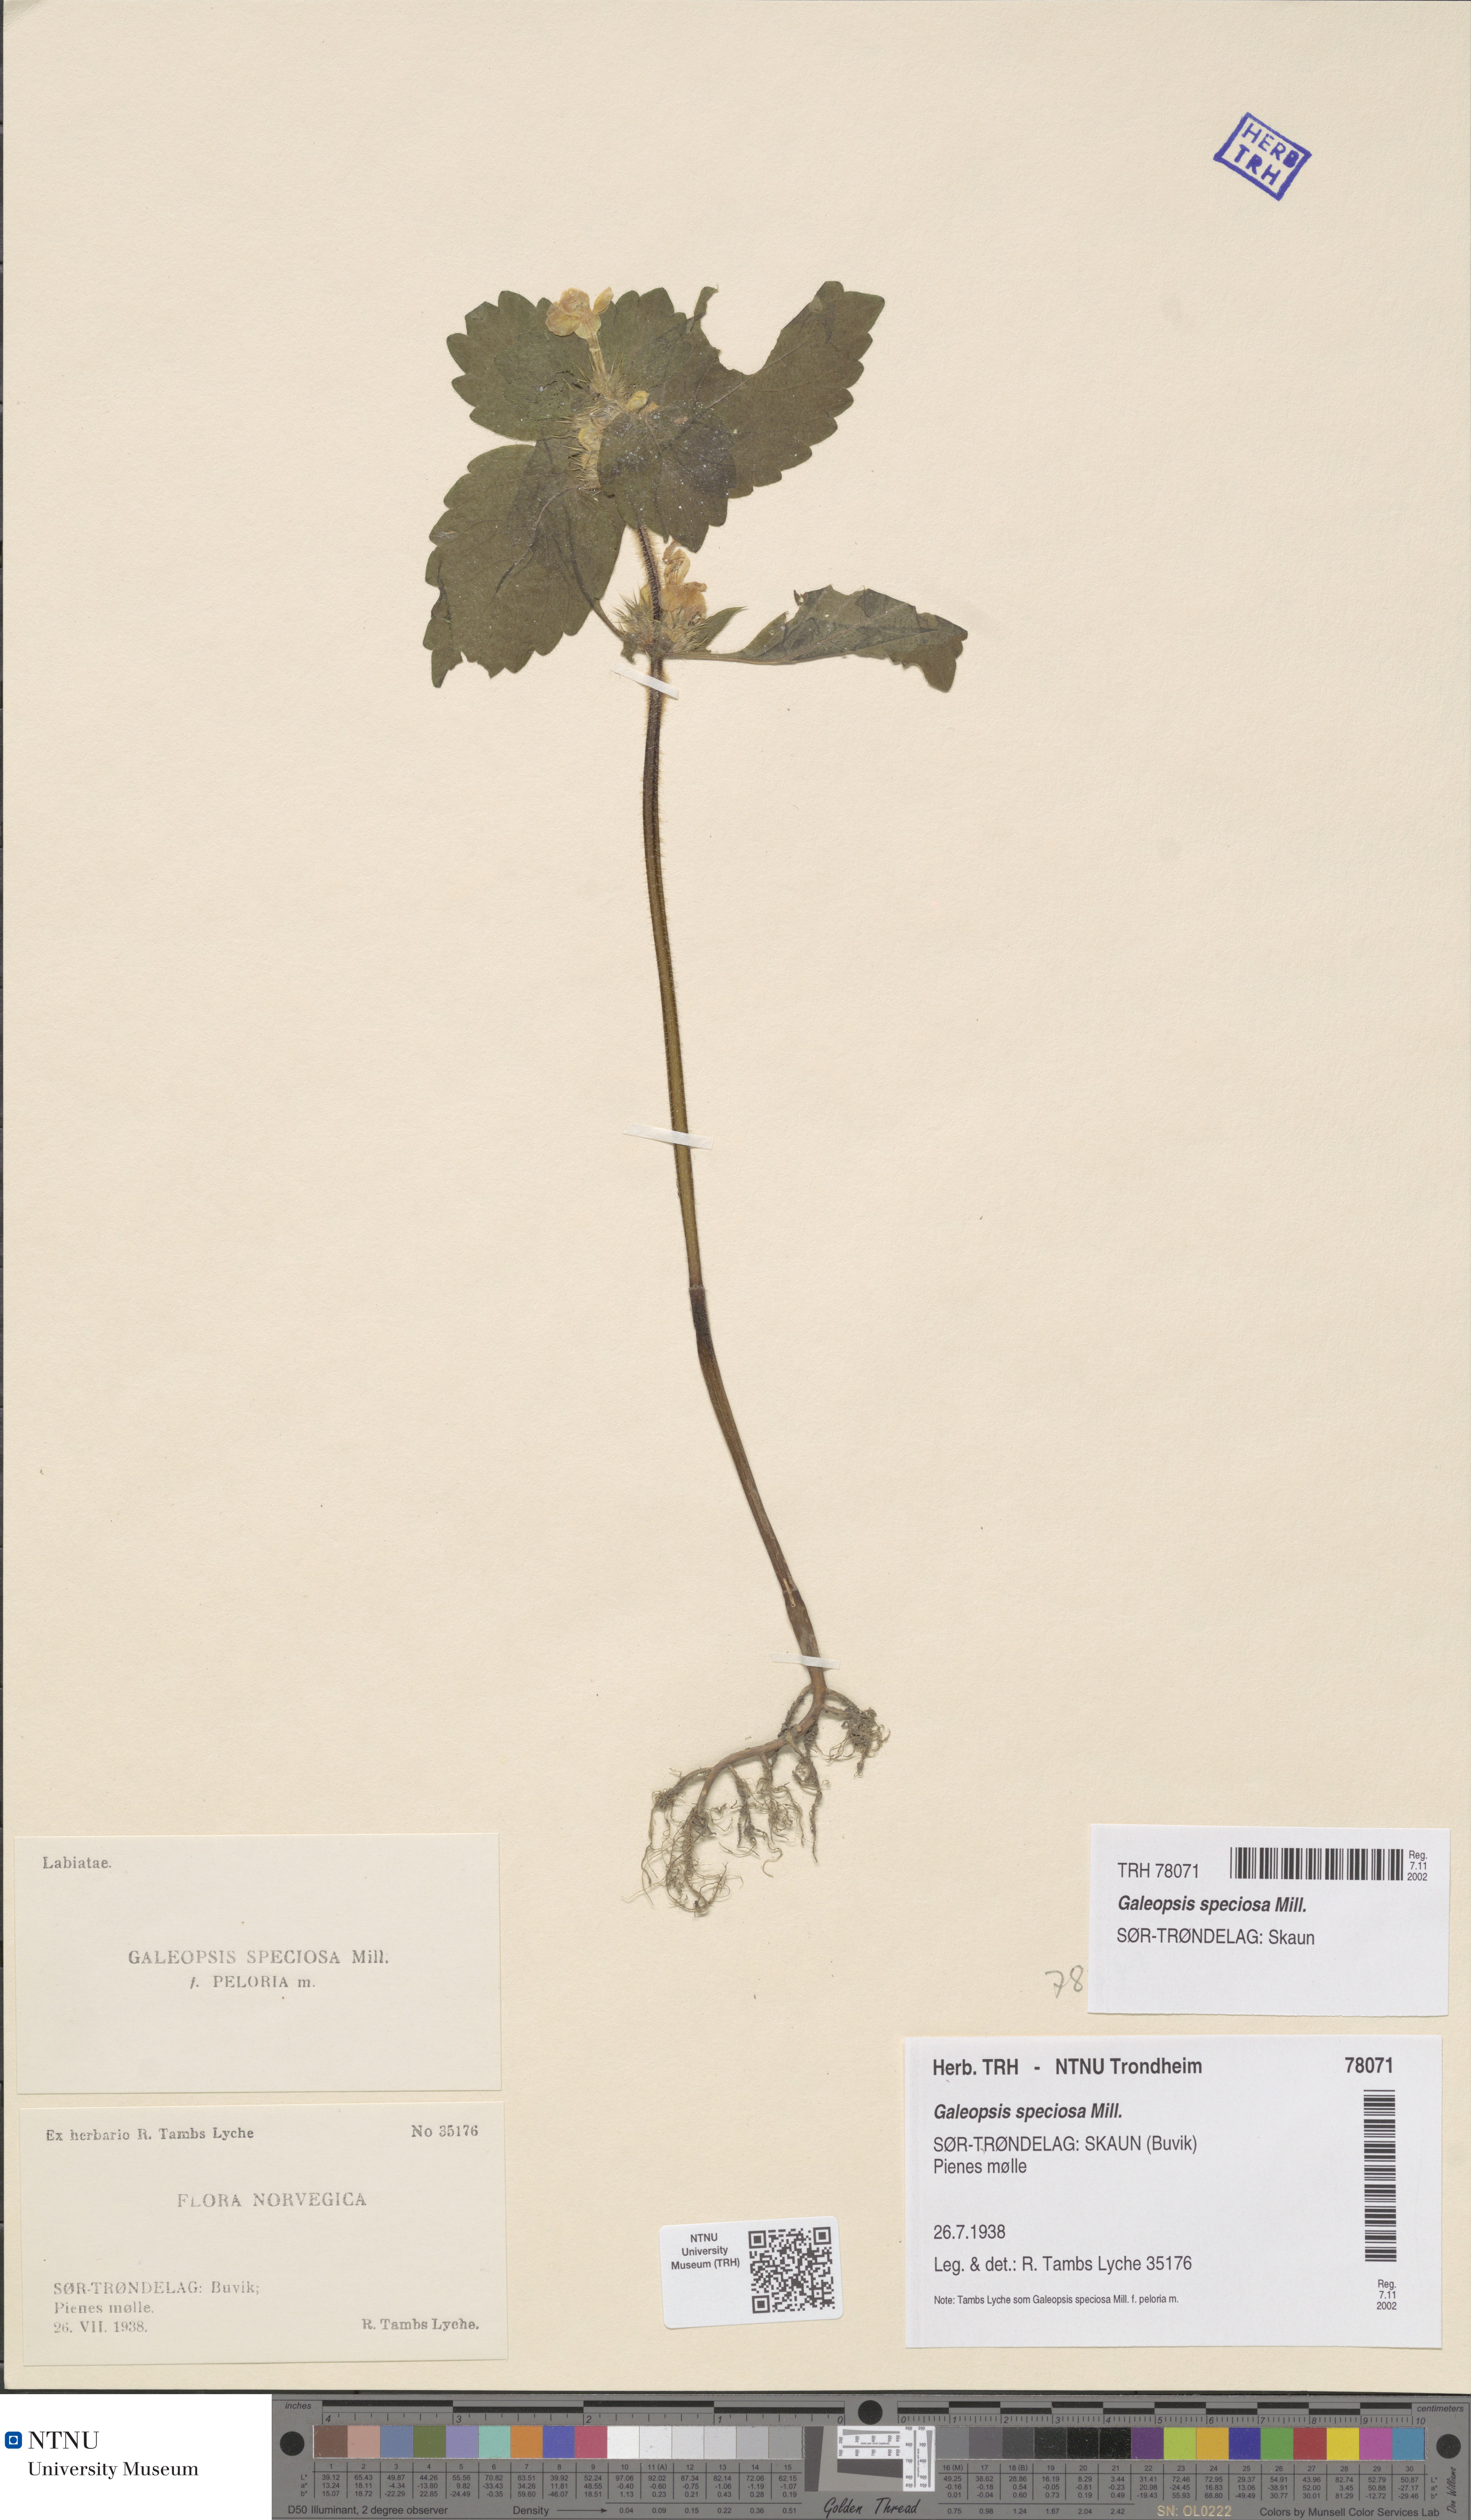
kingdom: Plantae
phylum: Tracheophyta
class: Magnoliopsida
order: Lamiales
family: Lamiaceae
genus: Galeopsis
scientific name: Galeopsis speciosa
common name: Large-flowered hemp-nettle
